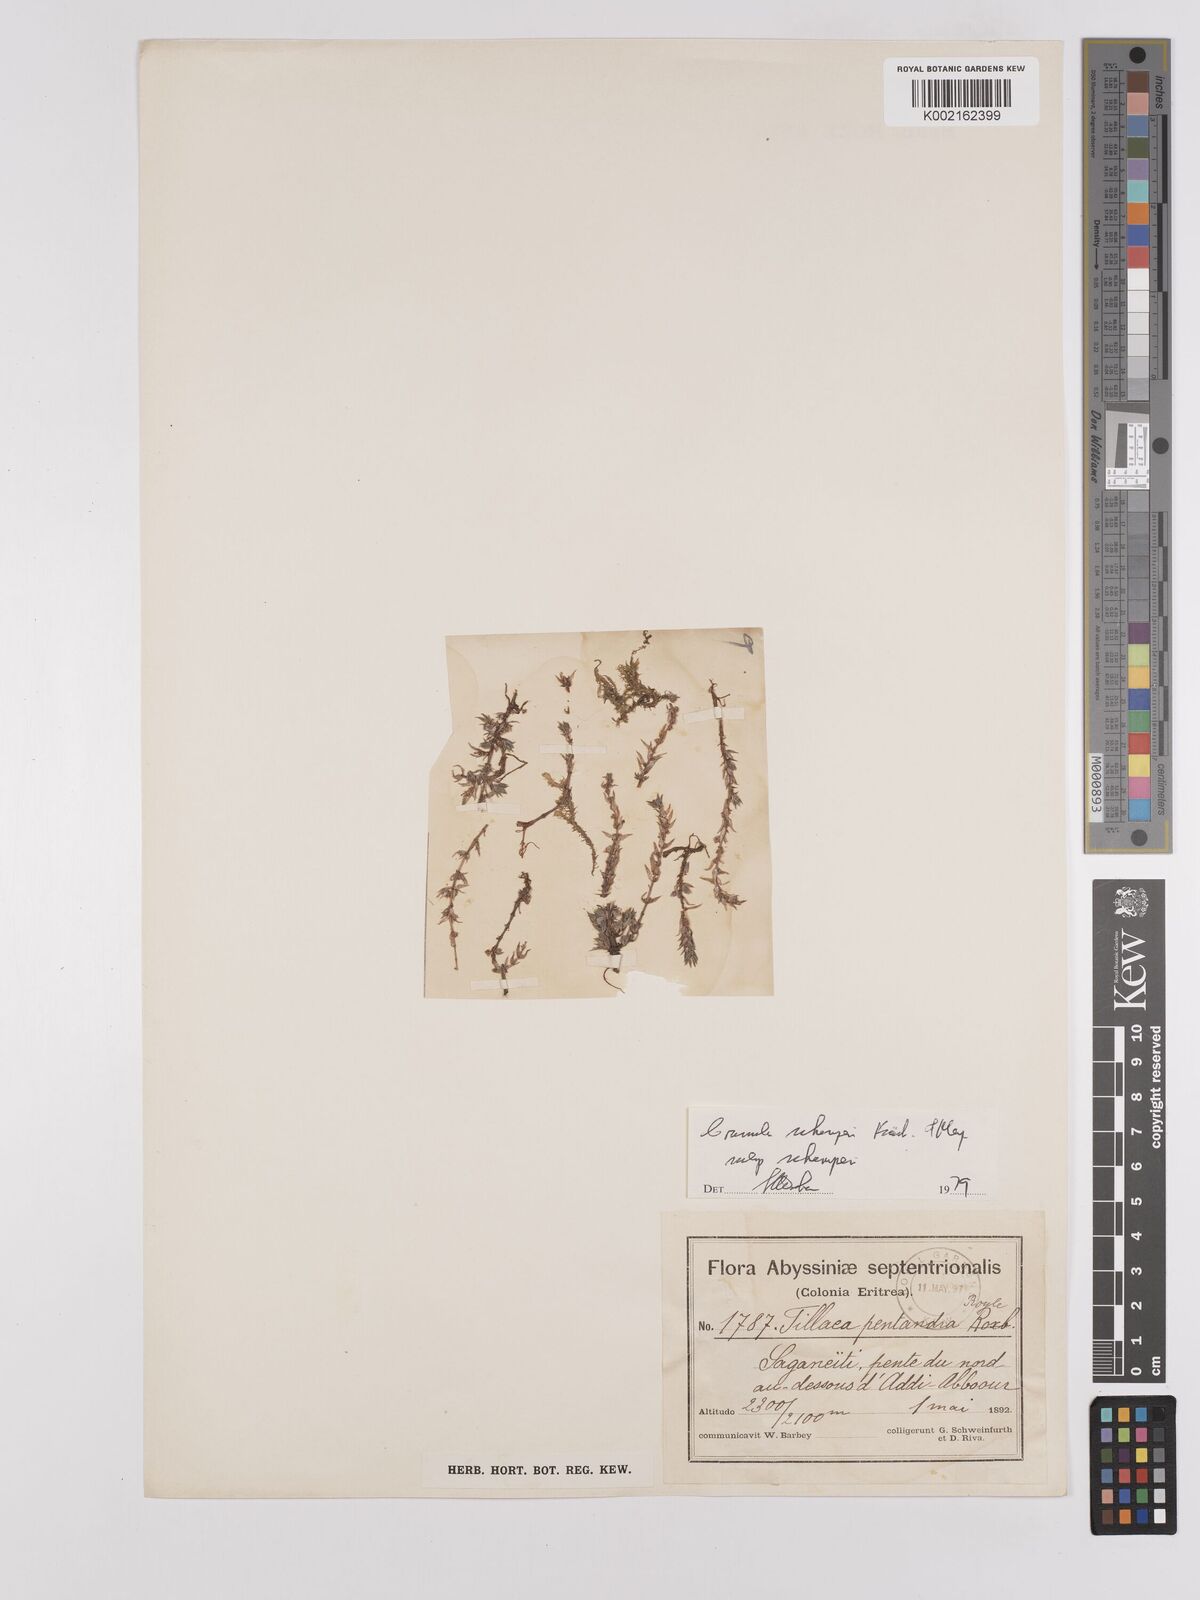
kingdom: Plantae
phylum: Tracheophyta
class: Magnoliopsida
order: Saxifragales
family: Crassulaceae
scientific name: Crassulaceae
